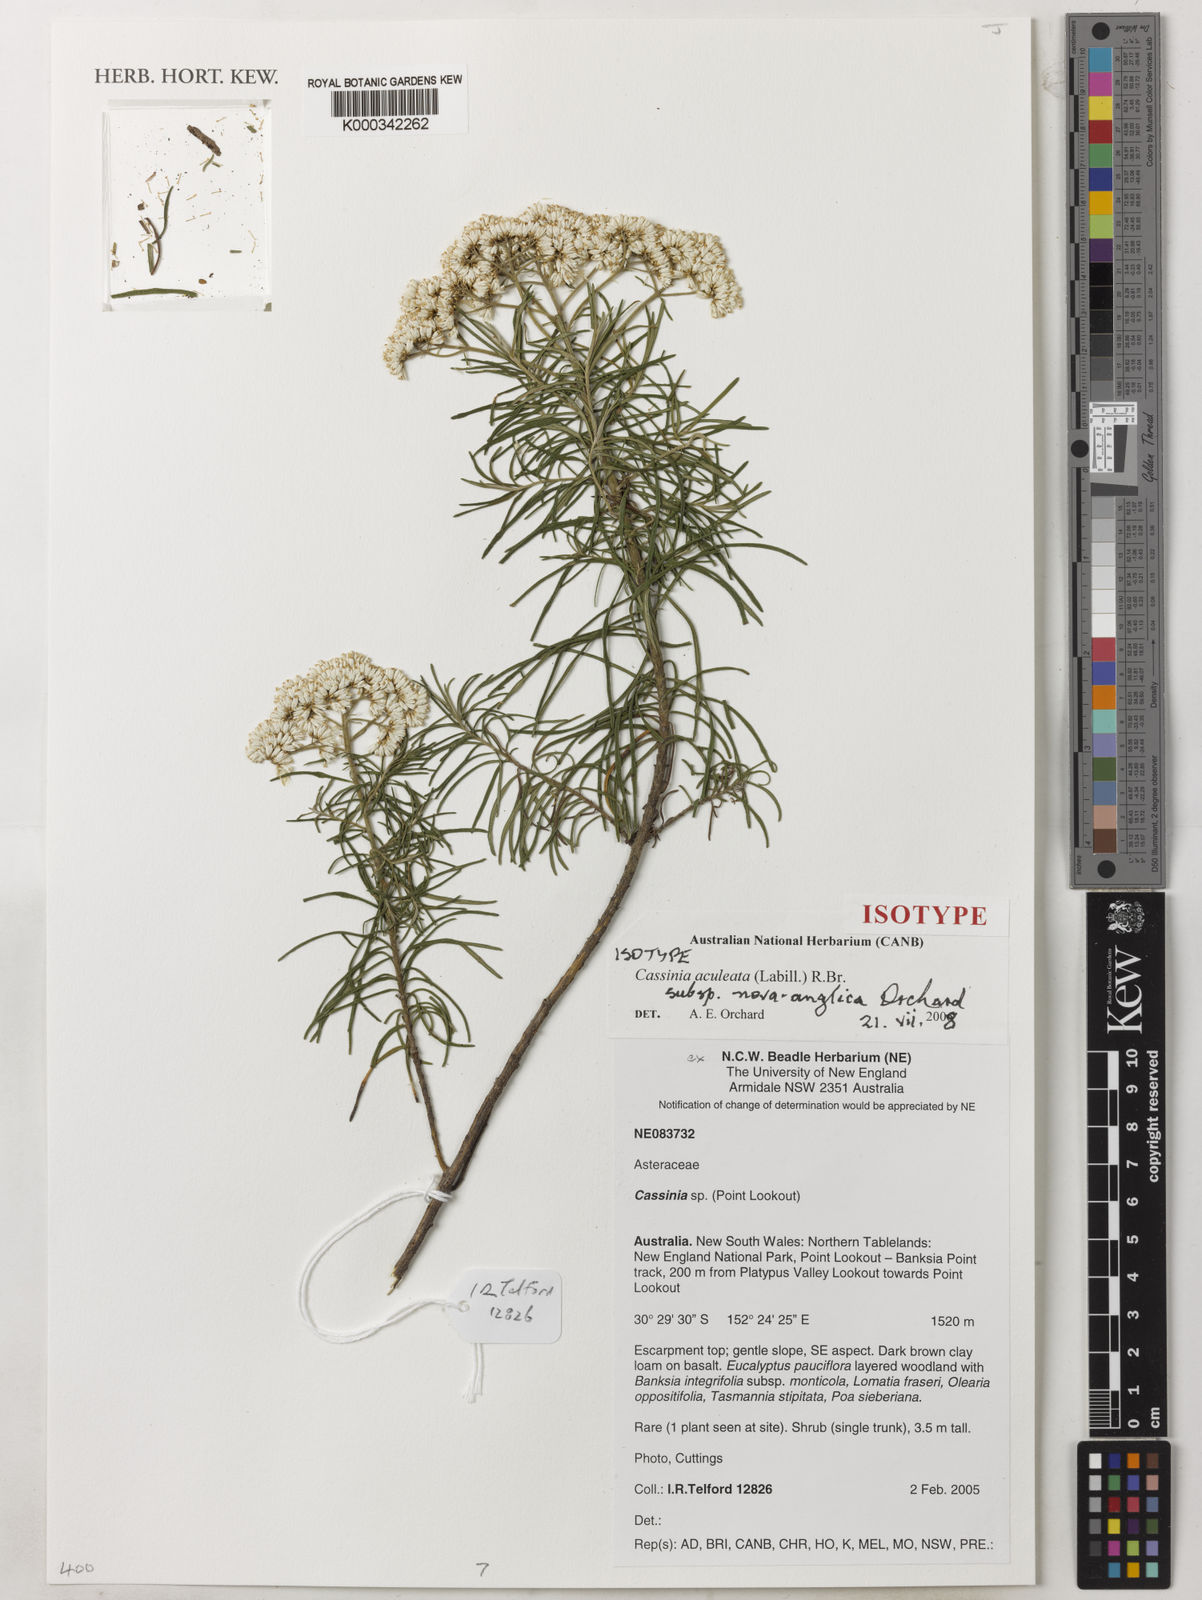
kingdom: Plantae
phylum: Tracheophyta
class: Magnoliopsida
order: Asterales
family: Asteraceae
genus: Cassinia
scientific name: Cassinia aculeata
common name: Australian tauhinu
